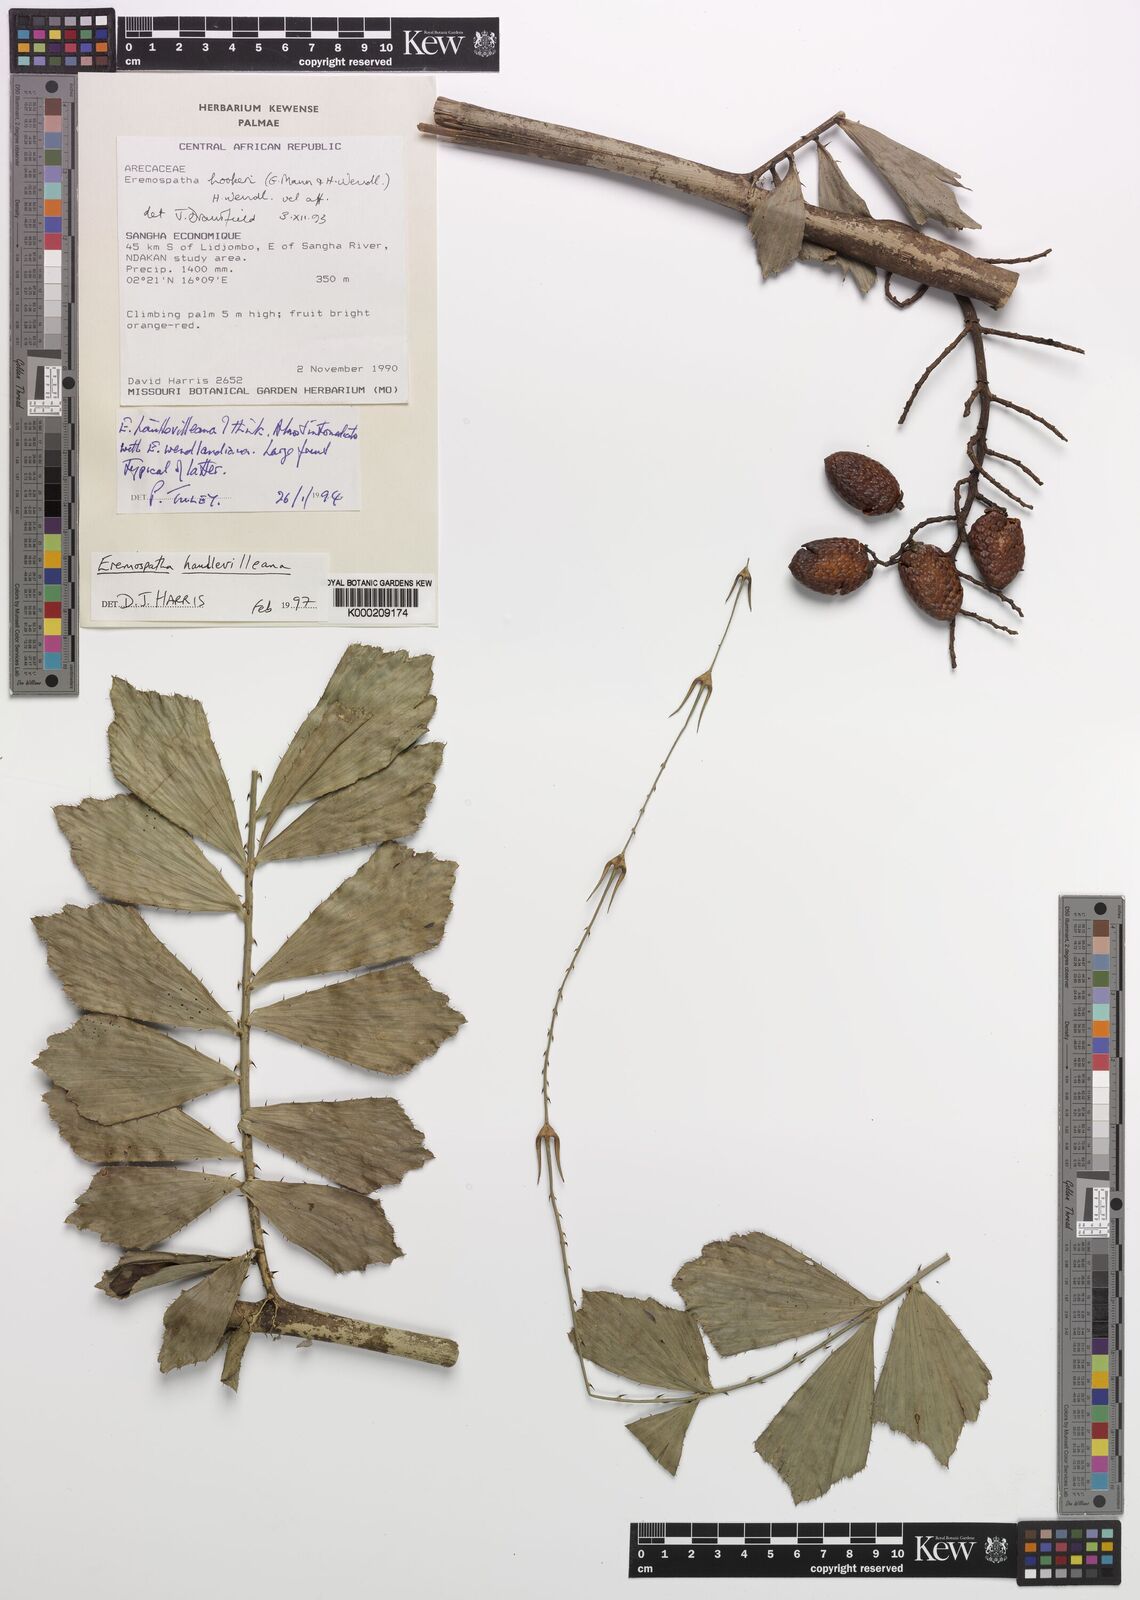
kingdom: Plantae
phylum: Tracheophyta
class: Liliopsida
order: Arecales
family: Arecaceae
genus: Eremospatha
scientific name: Eremospatha haullevilleana
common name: Rattan
